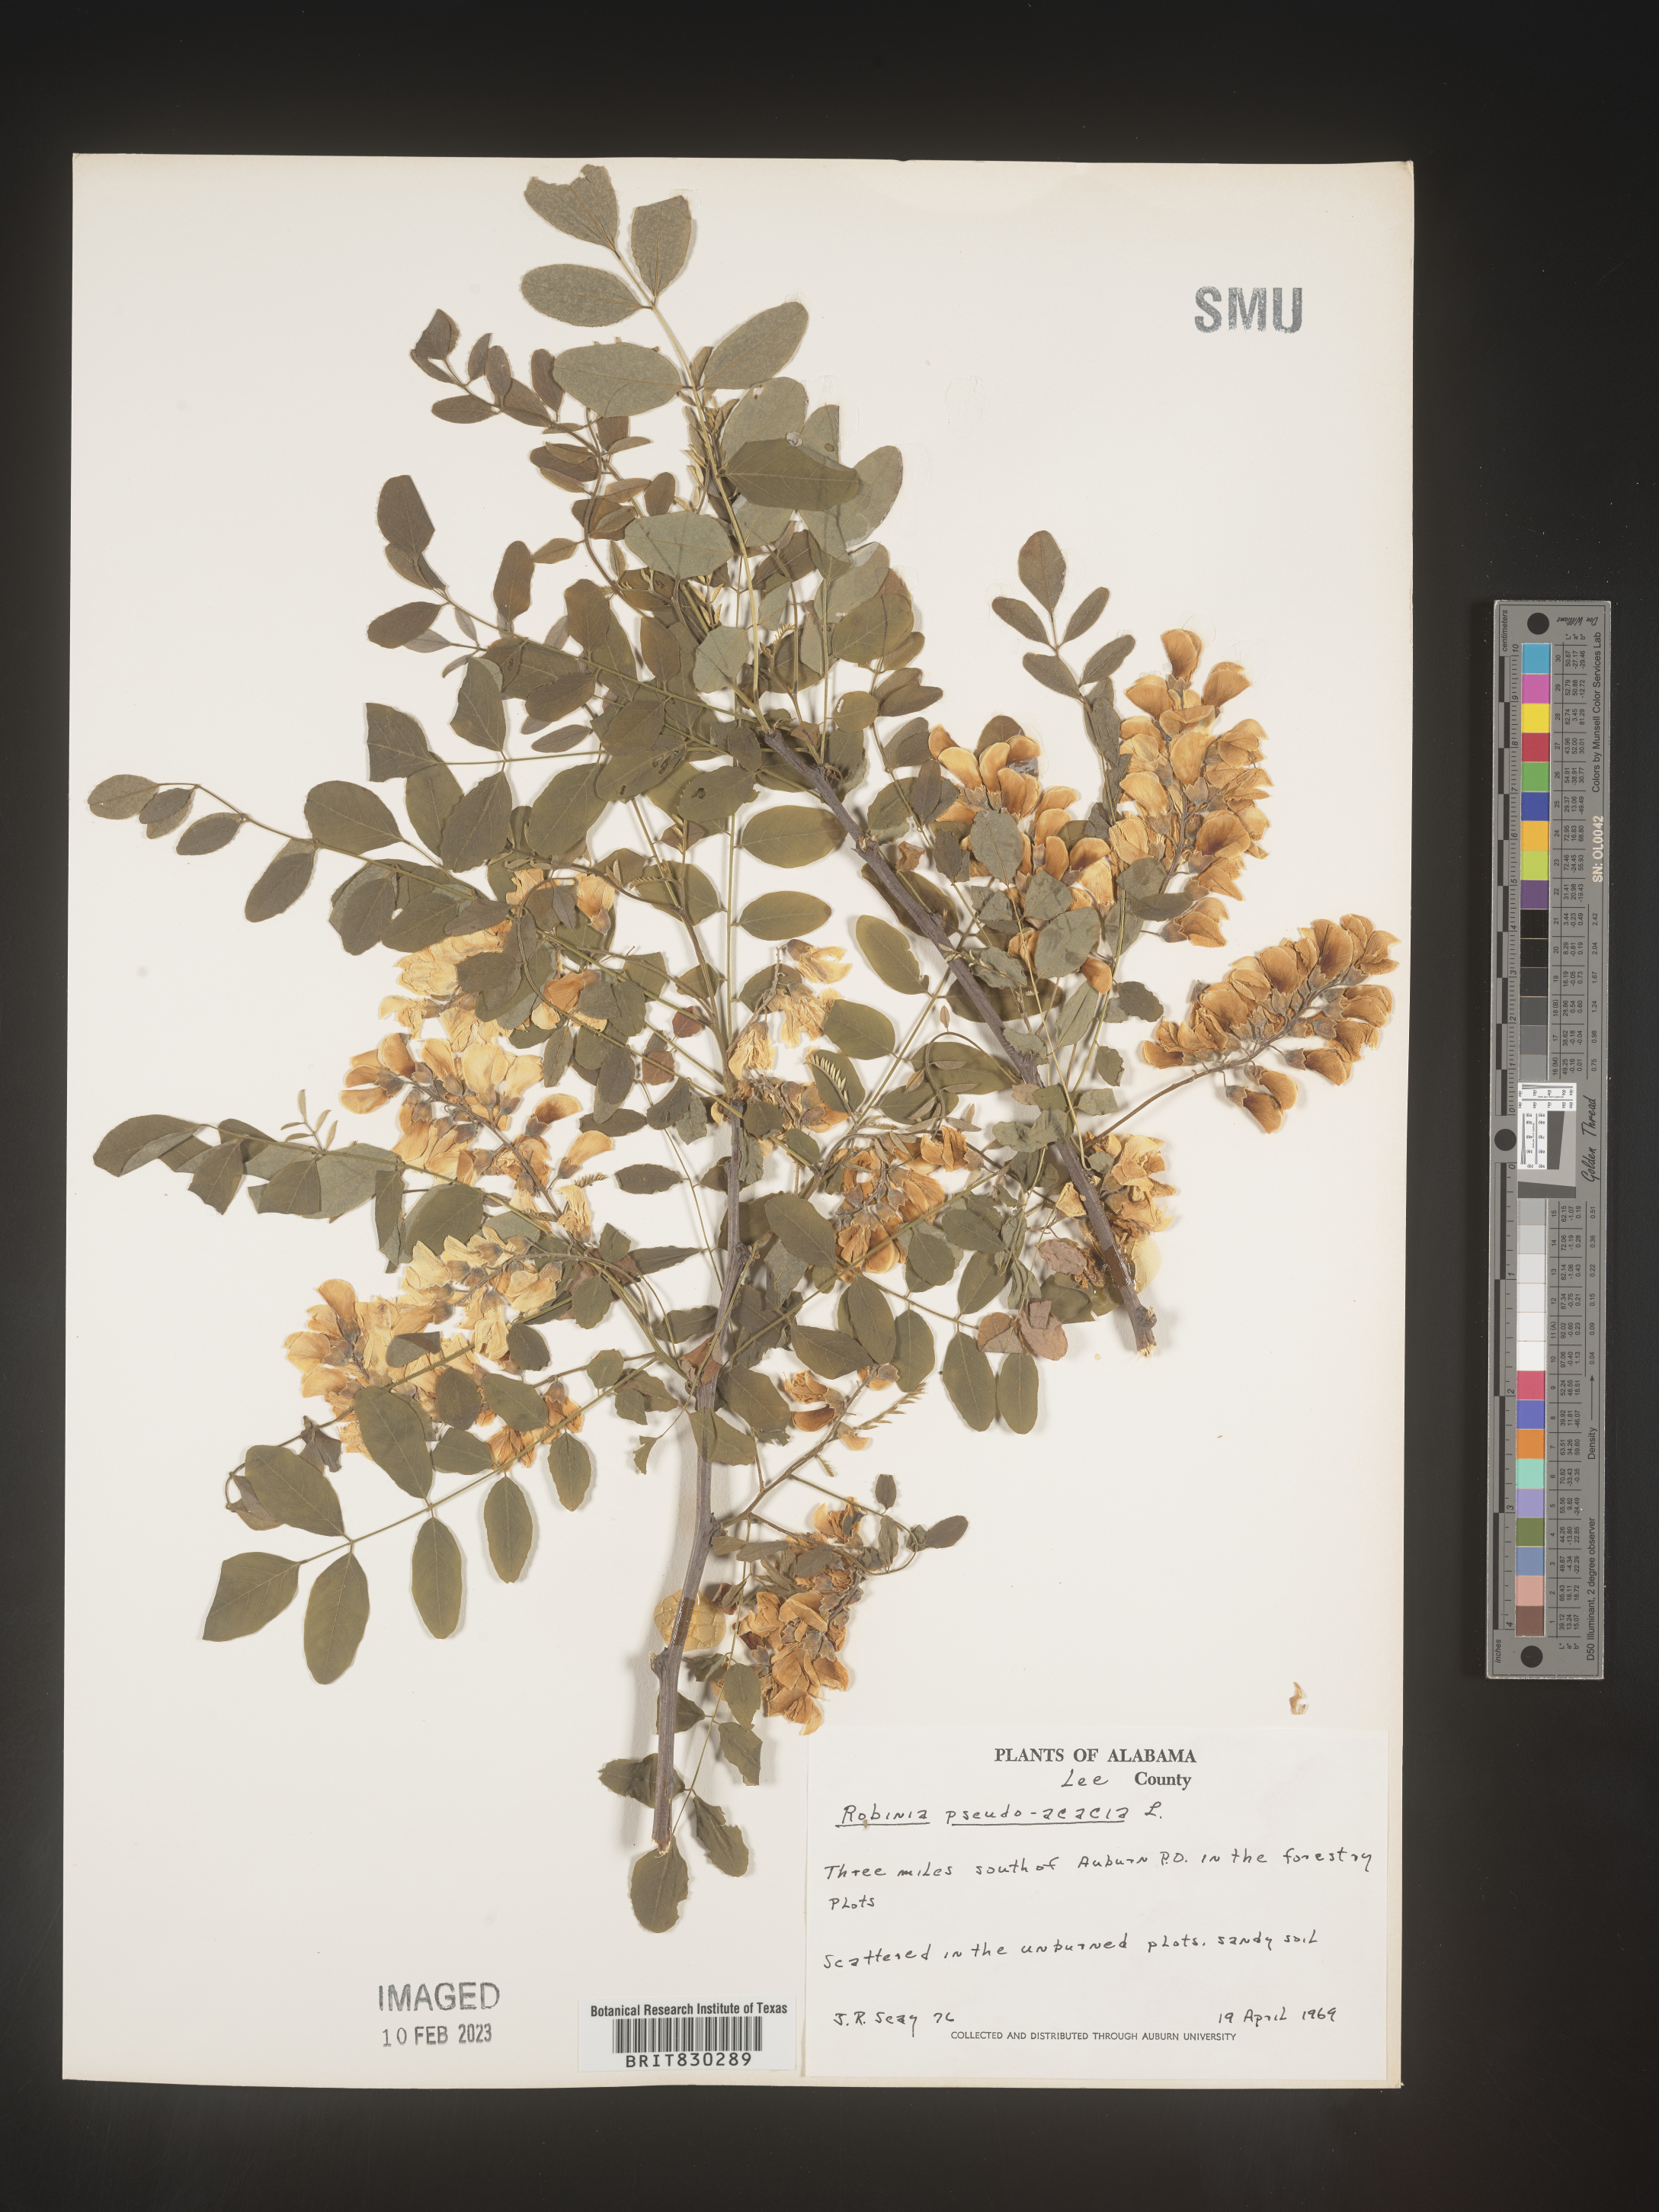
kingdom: Plantae
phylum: Tracheophyta
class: Magnoliopsida
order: Fabales
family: Fabaceae
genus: Robinia
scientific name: Robinia pseudoacacia
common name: Black locust
